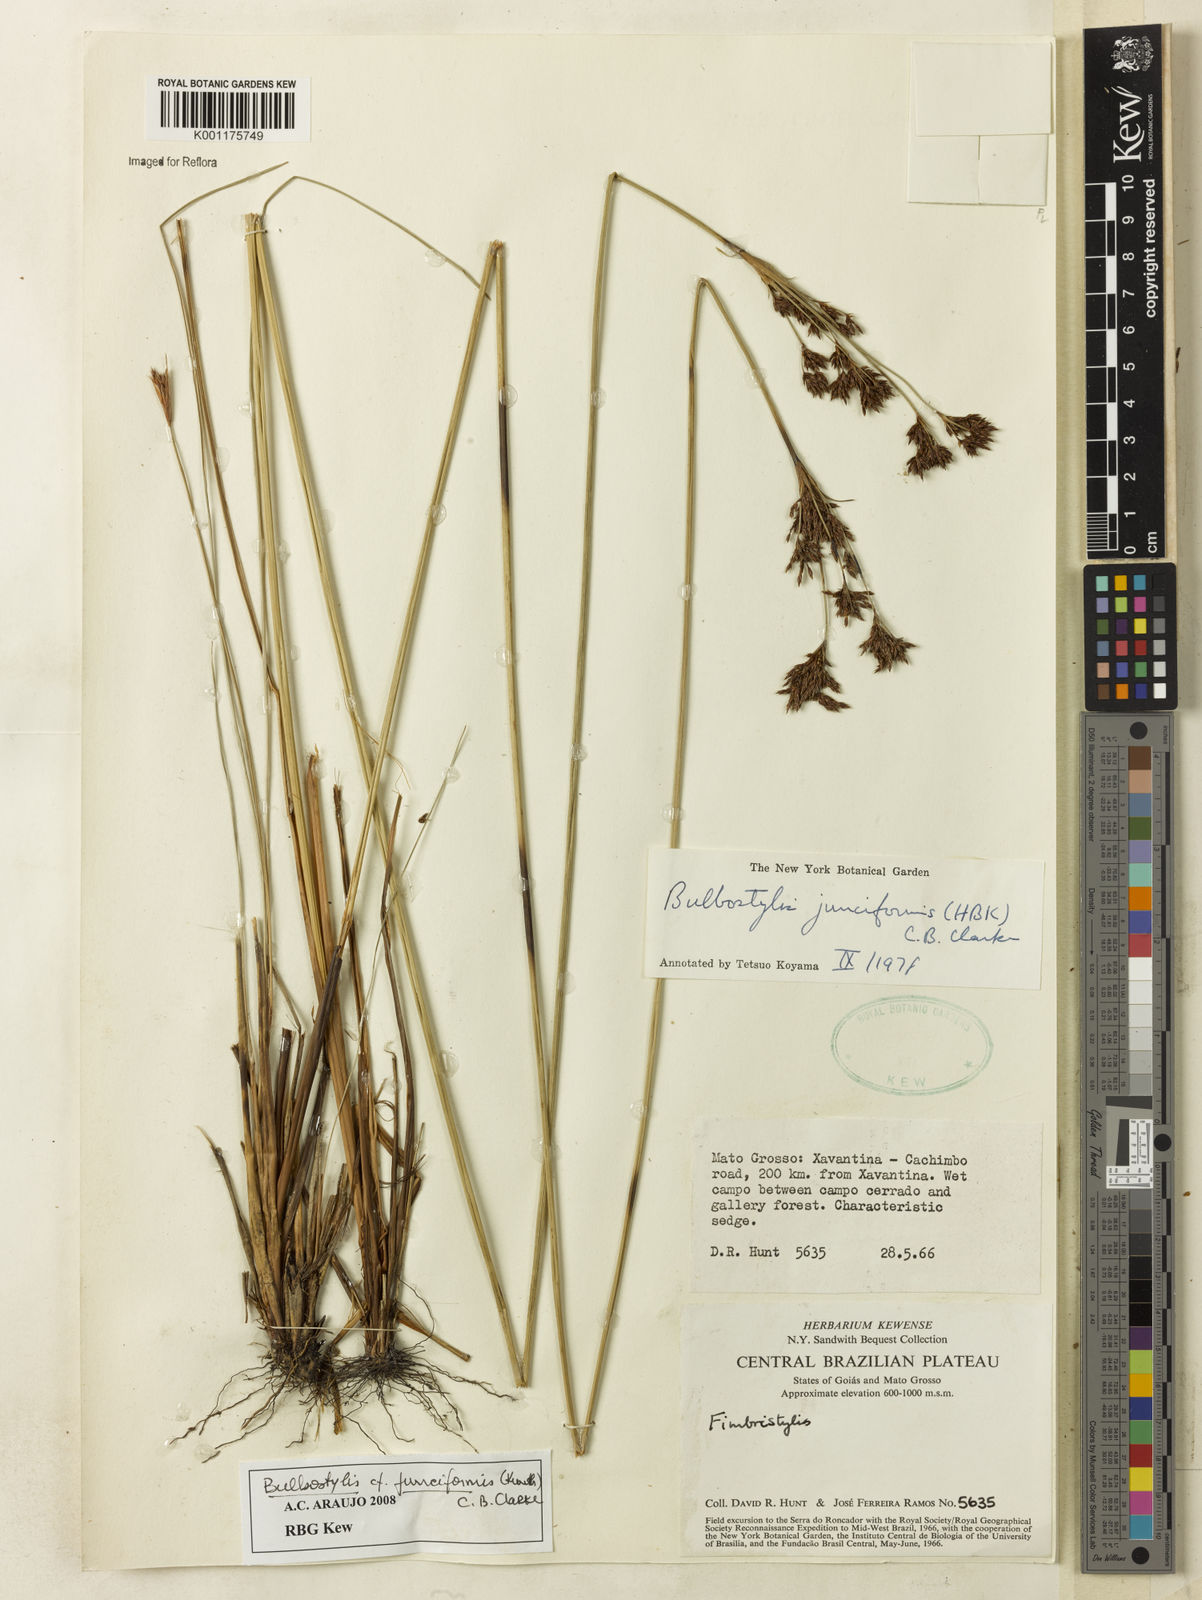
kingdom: Plantae
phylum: Tracheophyta
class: Liliopsida
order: Poales
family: Cyperaceae
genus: Bulbostylis
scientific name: Bulbostylis junciformis
